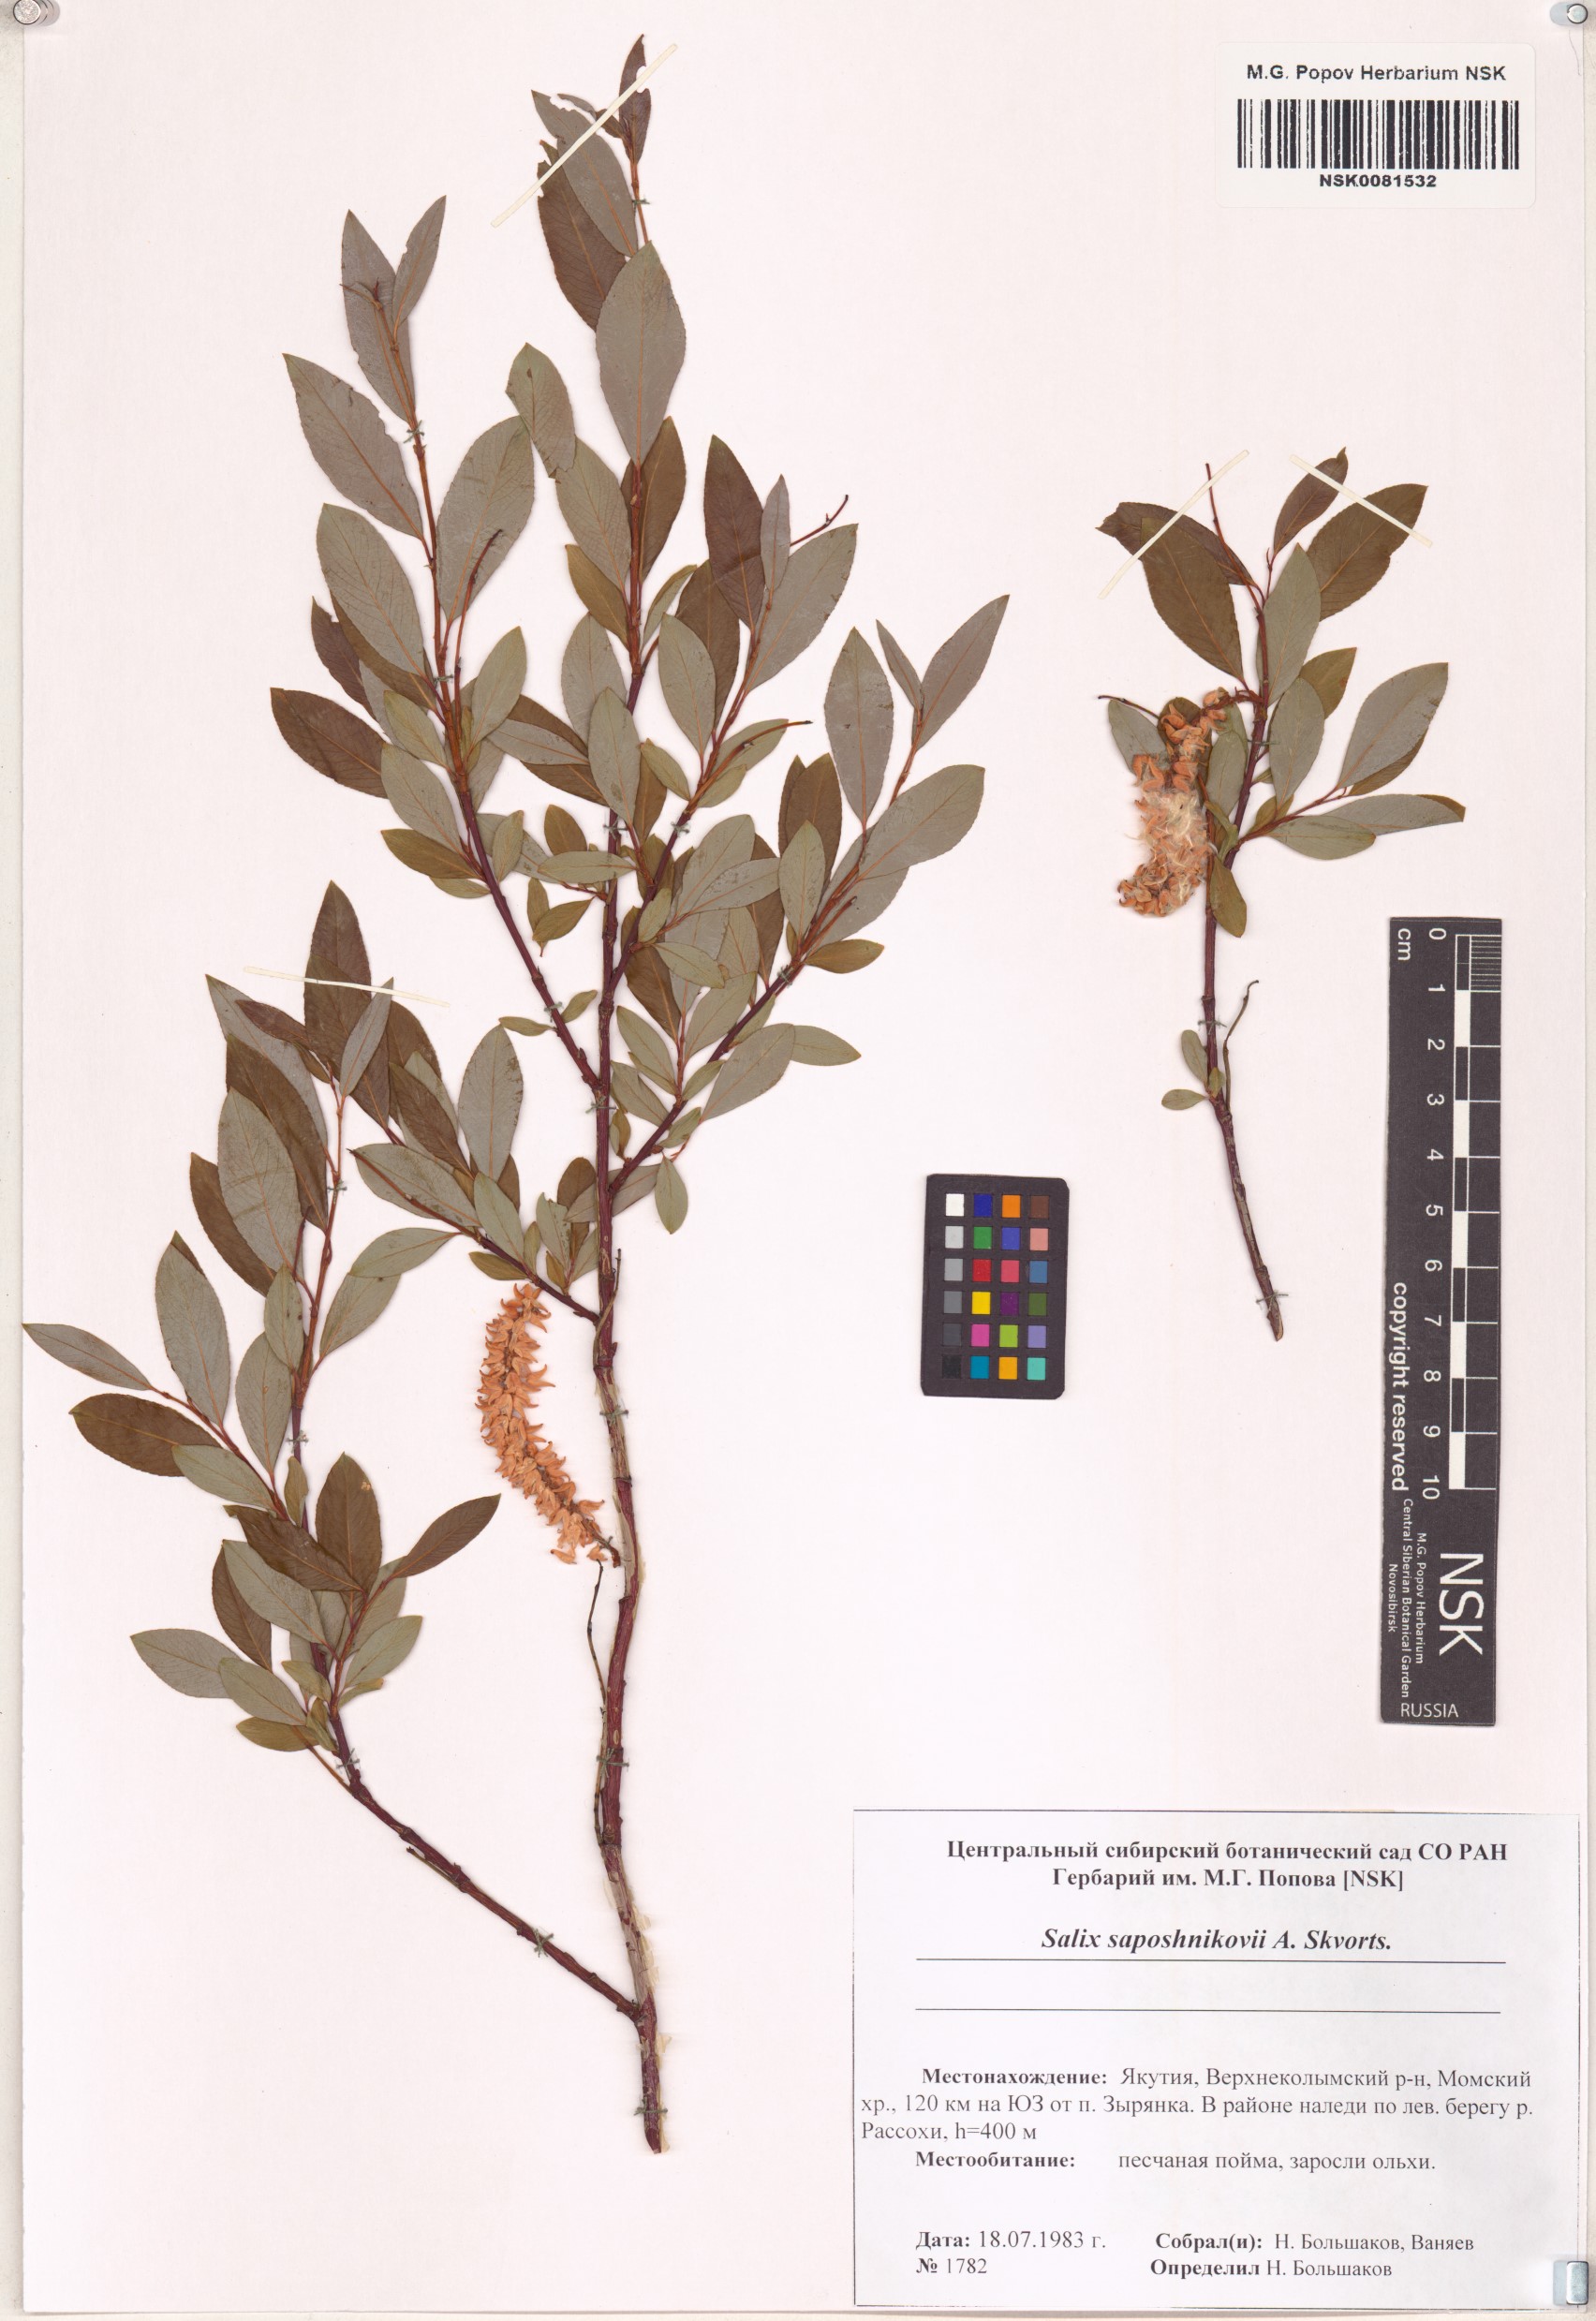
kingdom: Plantae
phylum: Tracheophyta
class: Magnoliopsida
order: Malpighiales
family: Salicaceae
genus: Salix
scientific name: Salix saposhnikovii
